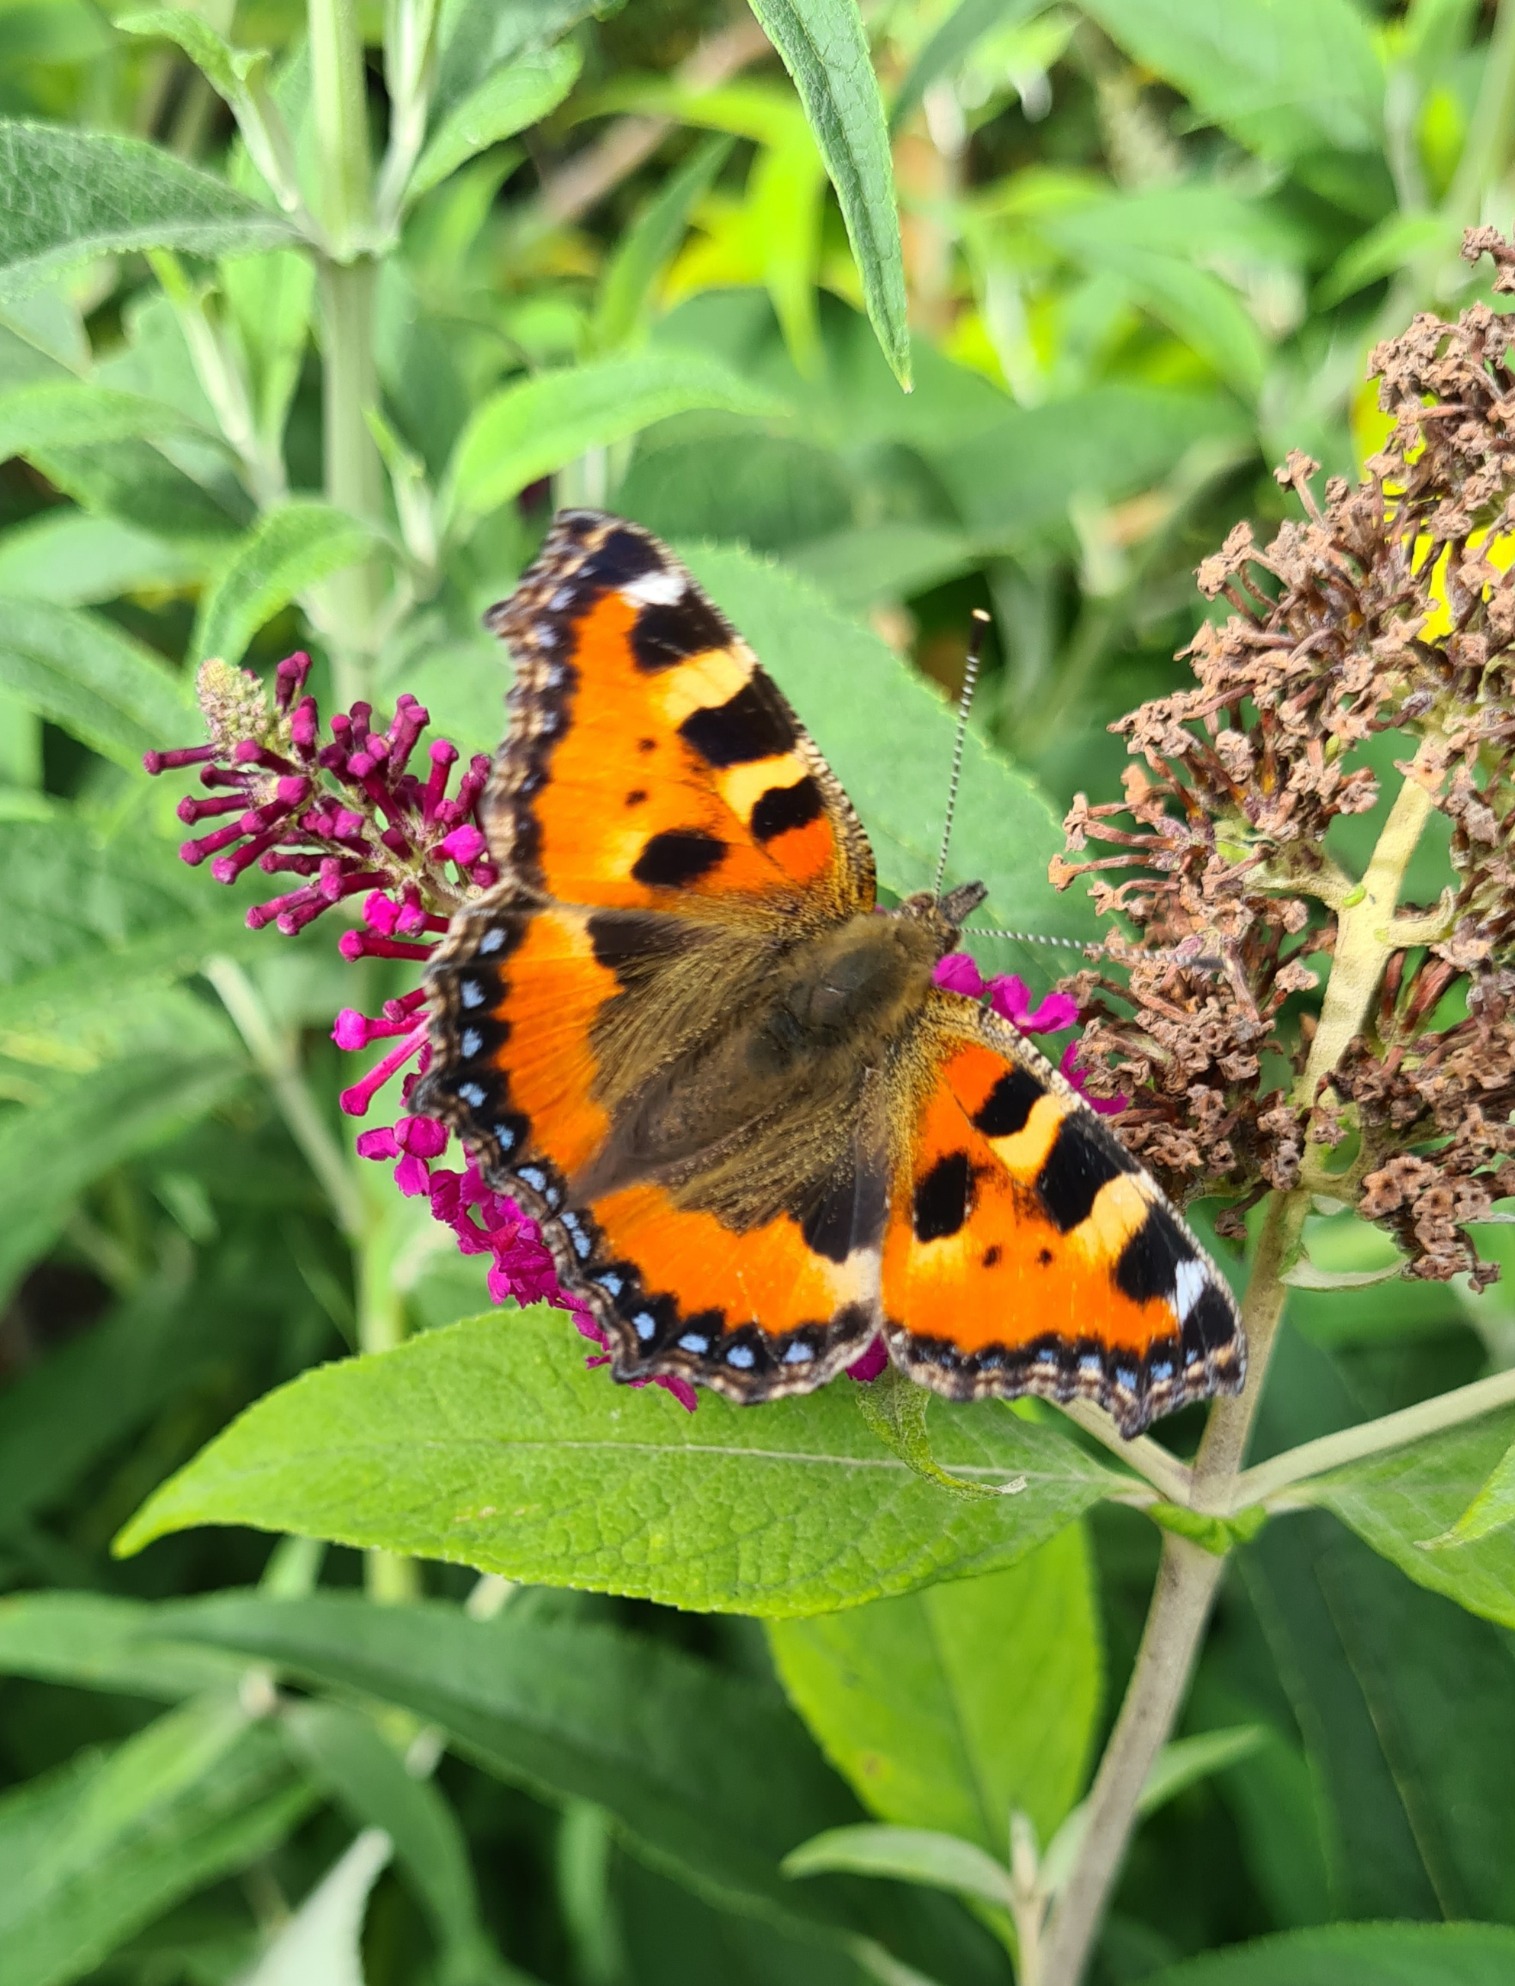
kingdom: Animalia
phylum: Arthropoda
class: Insecta
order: Lepidoptera
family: Nymphalidae
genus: Aglais
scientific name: Aglais urticae
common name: Nældens takvinge
